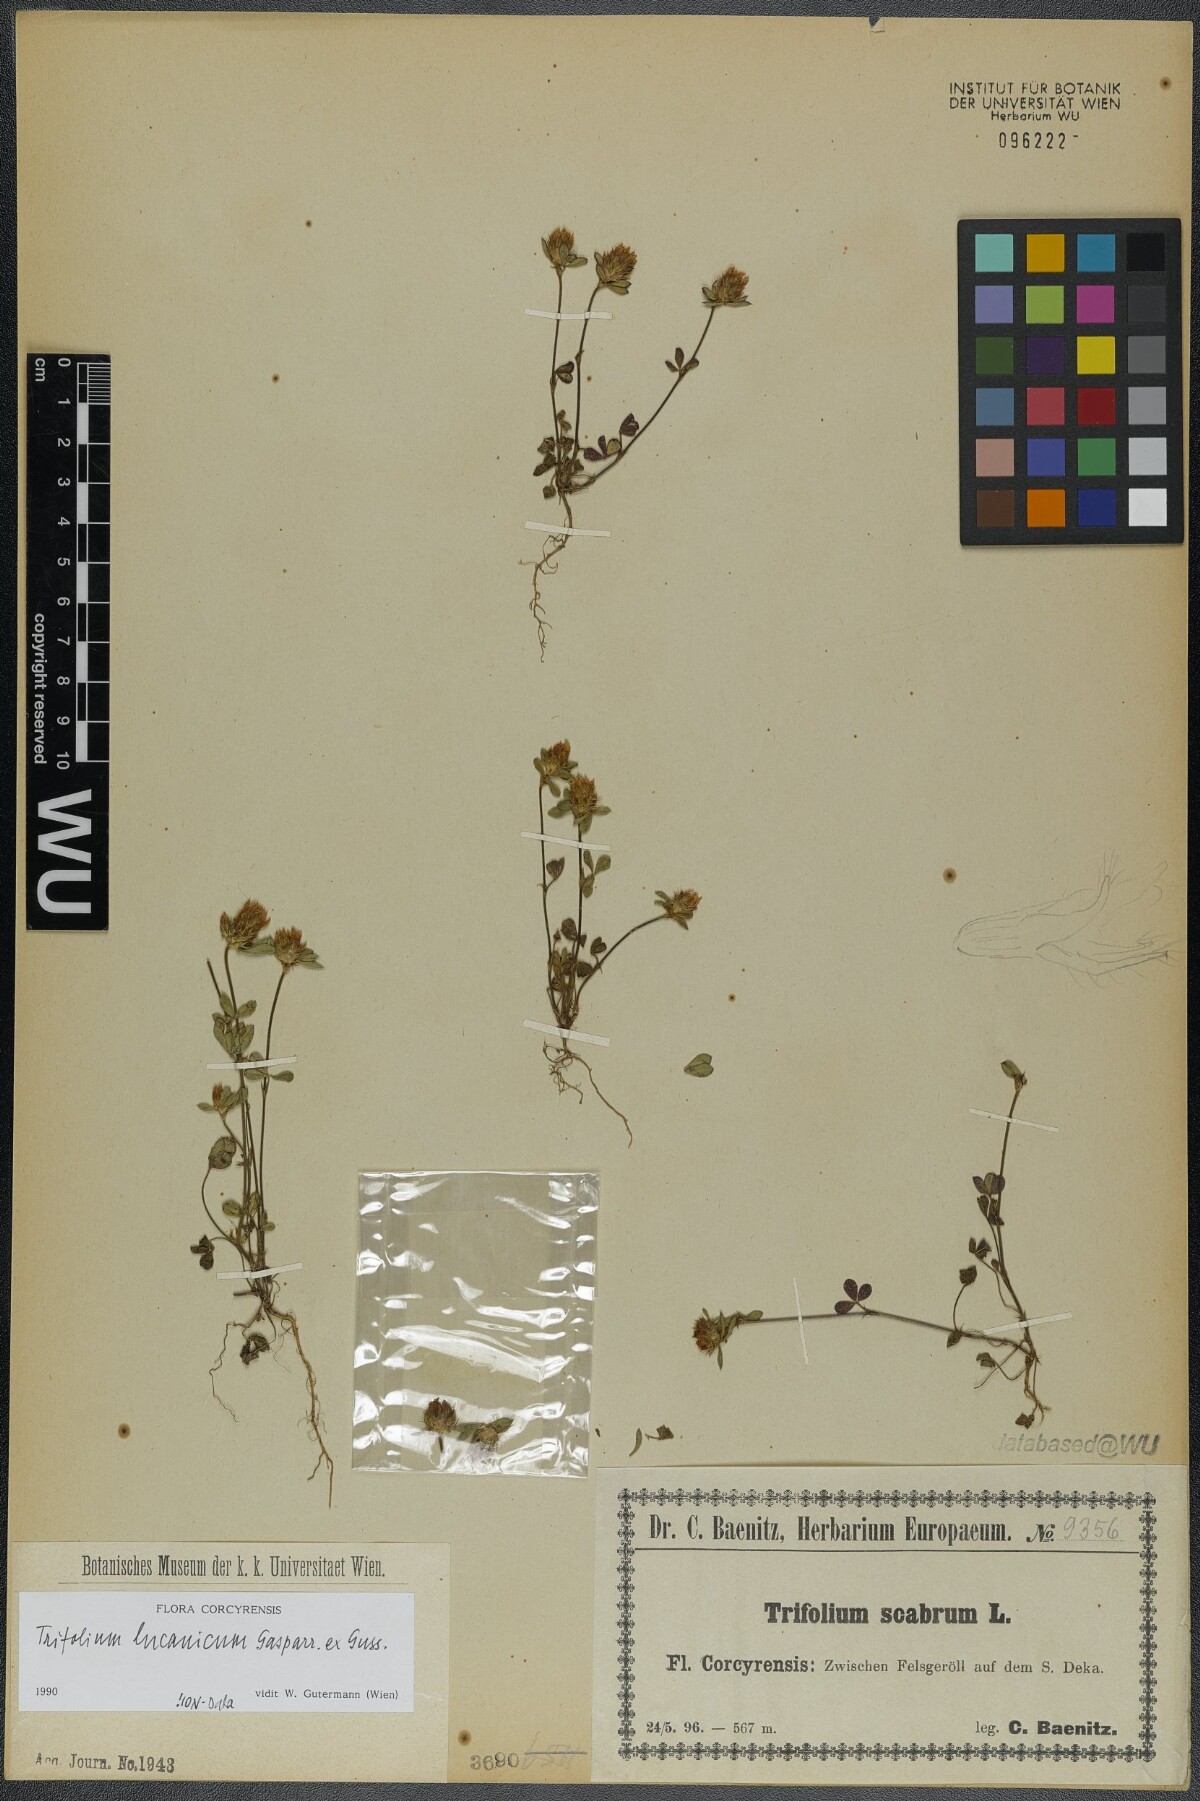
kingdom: Plantae
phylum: Tracheophyta
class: Magnoliopsida
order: Fabales
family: Fabaceae
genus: Trifolium
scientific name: Trifolium lucanicum
